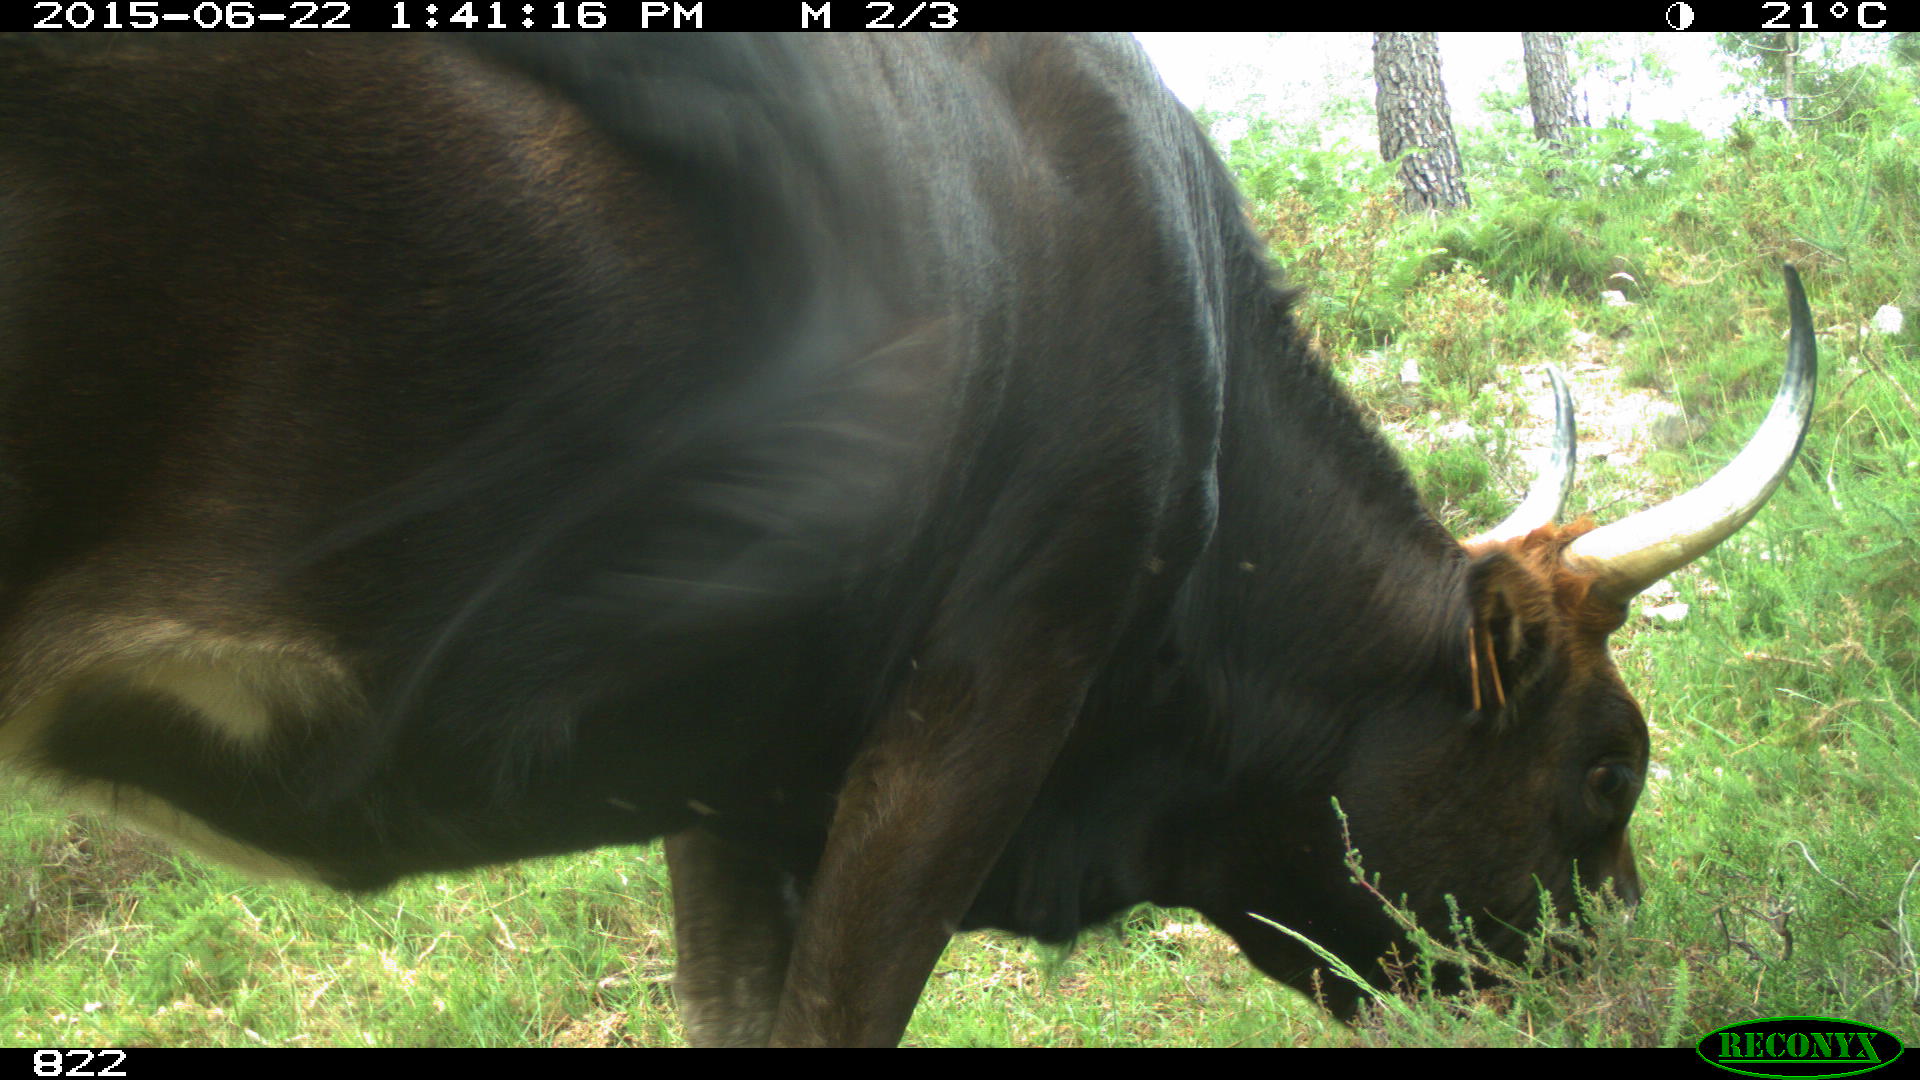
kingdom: Animalia
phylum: Chordata
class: Mammalia
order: Artiodactyla
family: Bovidae
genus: Bos
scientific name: Bos taurus
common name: Domesticated cattle
